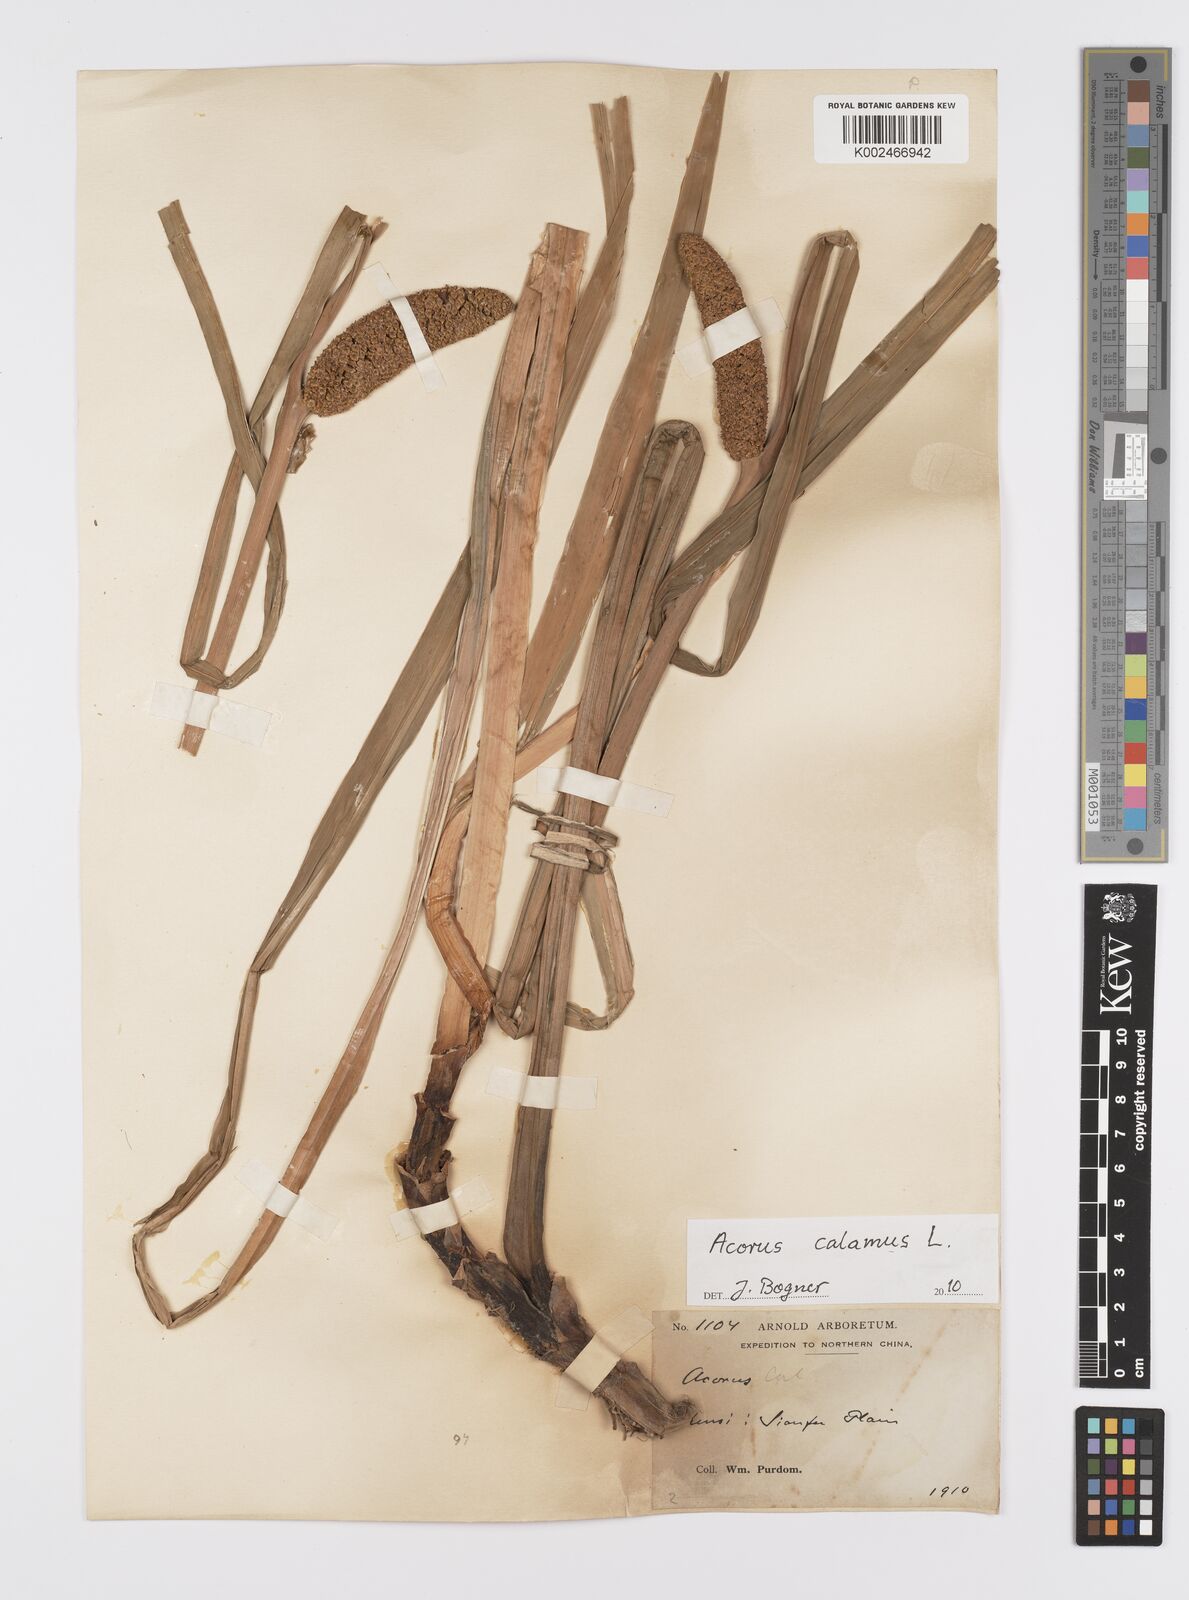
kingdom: Plantae
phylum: Tracheophyta
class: Liliopsida
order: Acorales
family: Acoraceae
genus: Acorus
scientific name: Acorus calamus
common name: Sweet-flag
